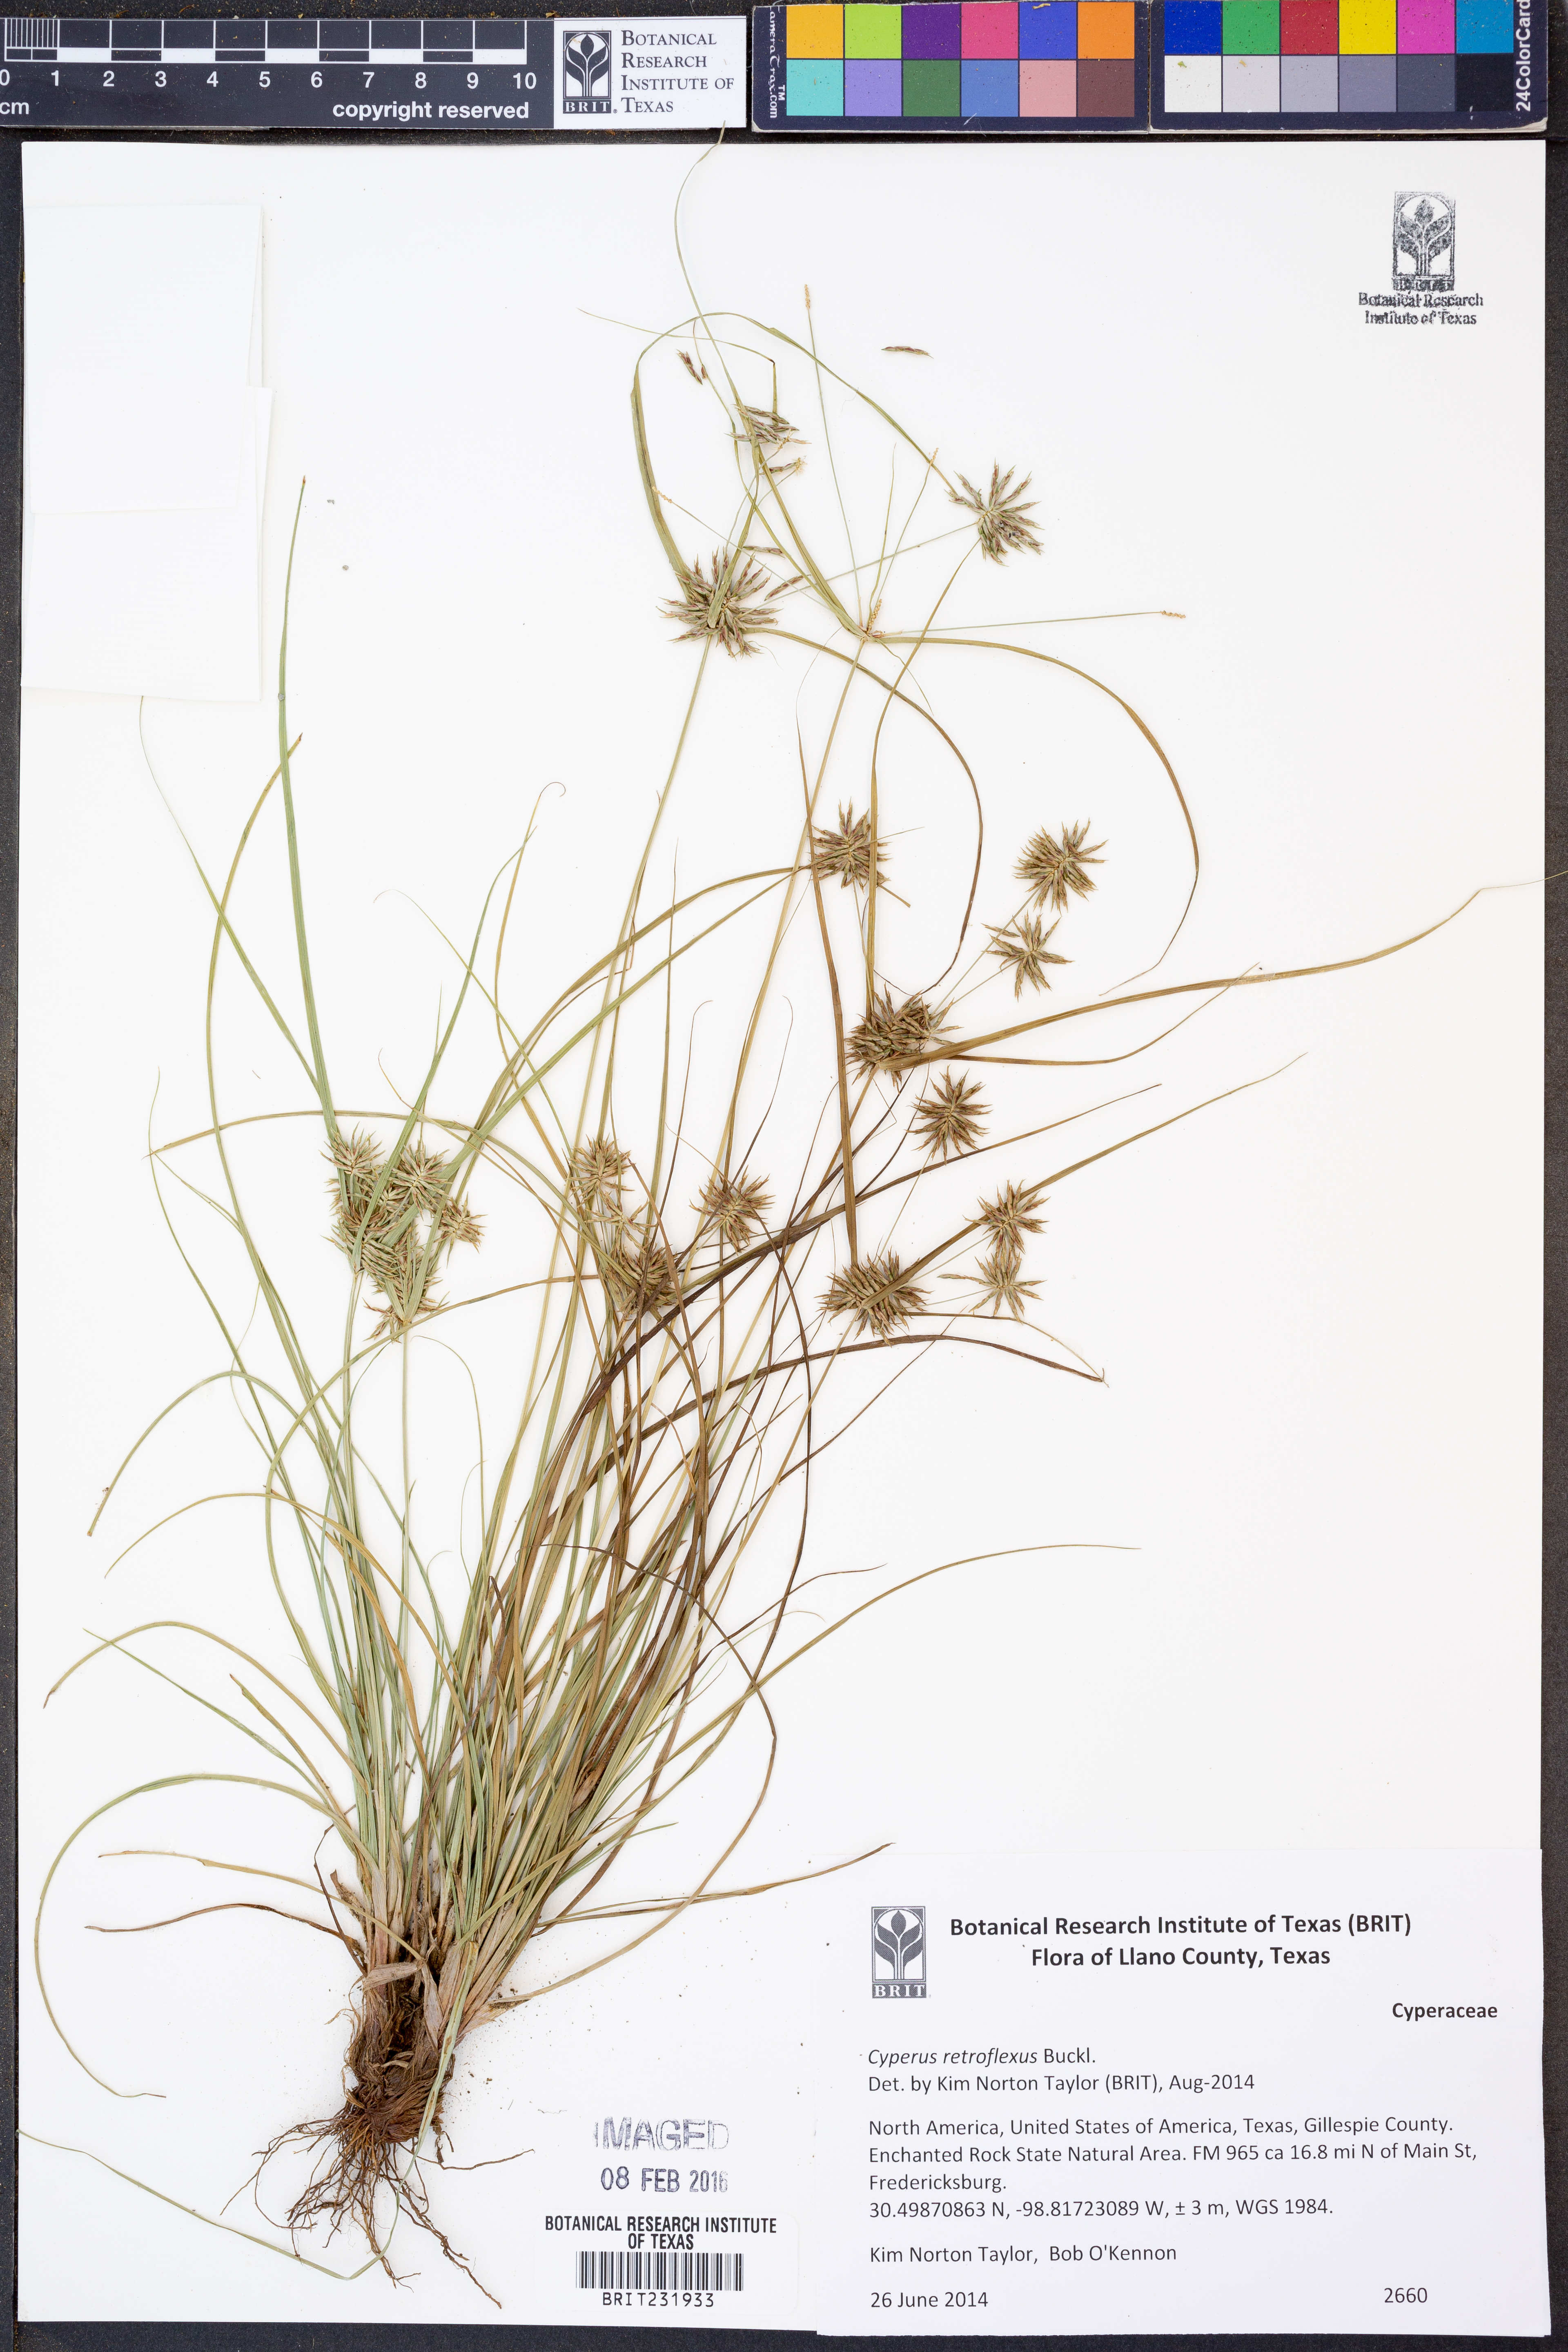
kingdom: Plantae
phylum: Tracheophyta
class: Liliopsida
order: Poales
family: Cyperaceae
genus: Cyperus
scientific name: Cyperus retroflexus
